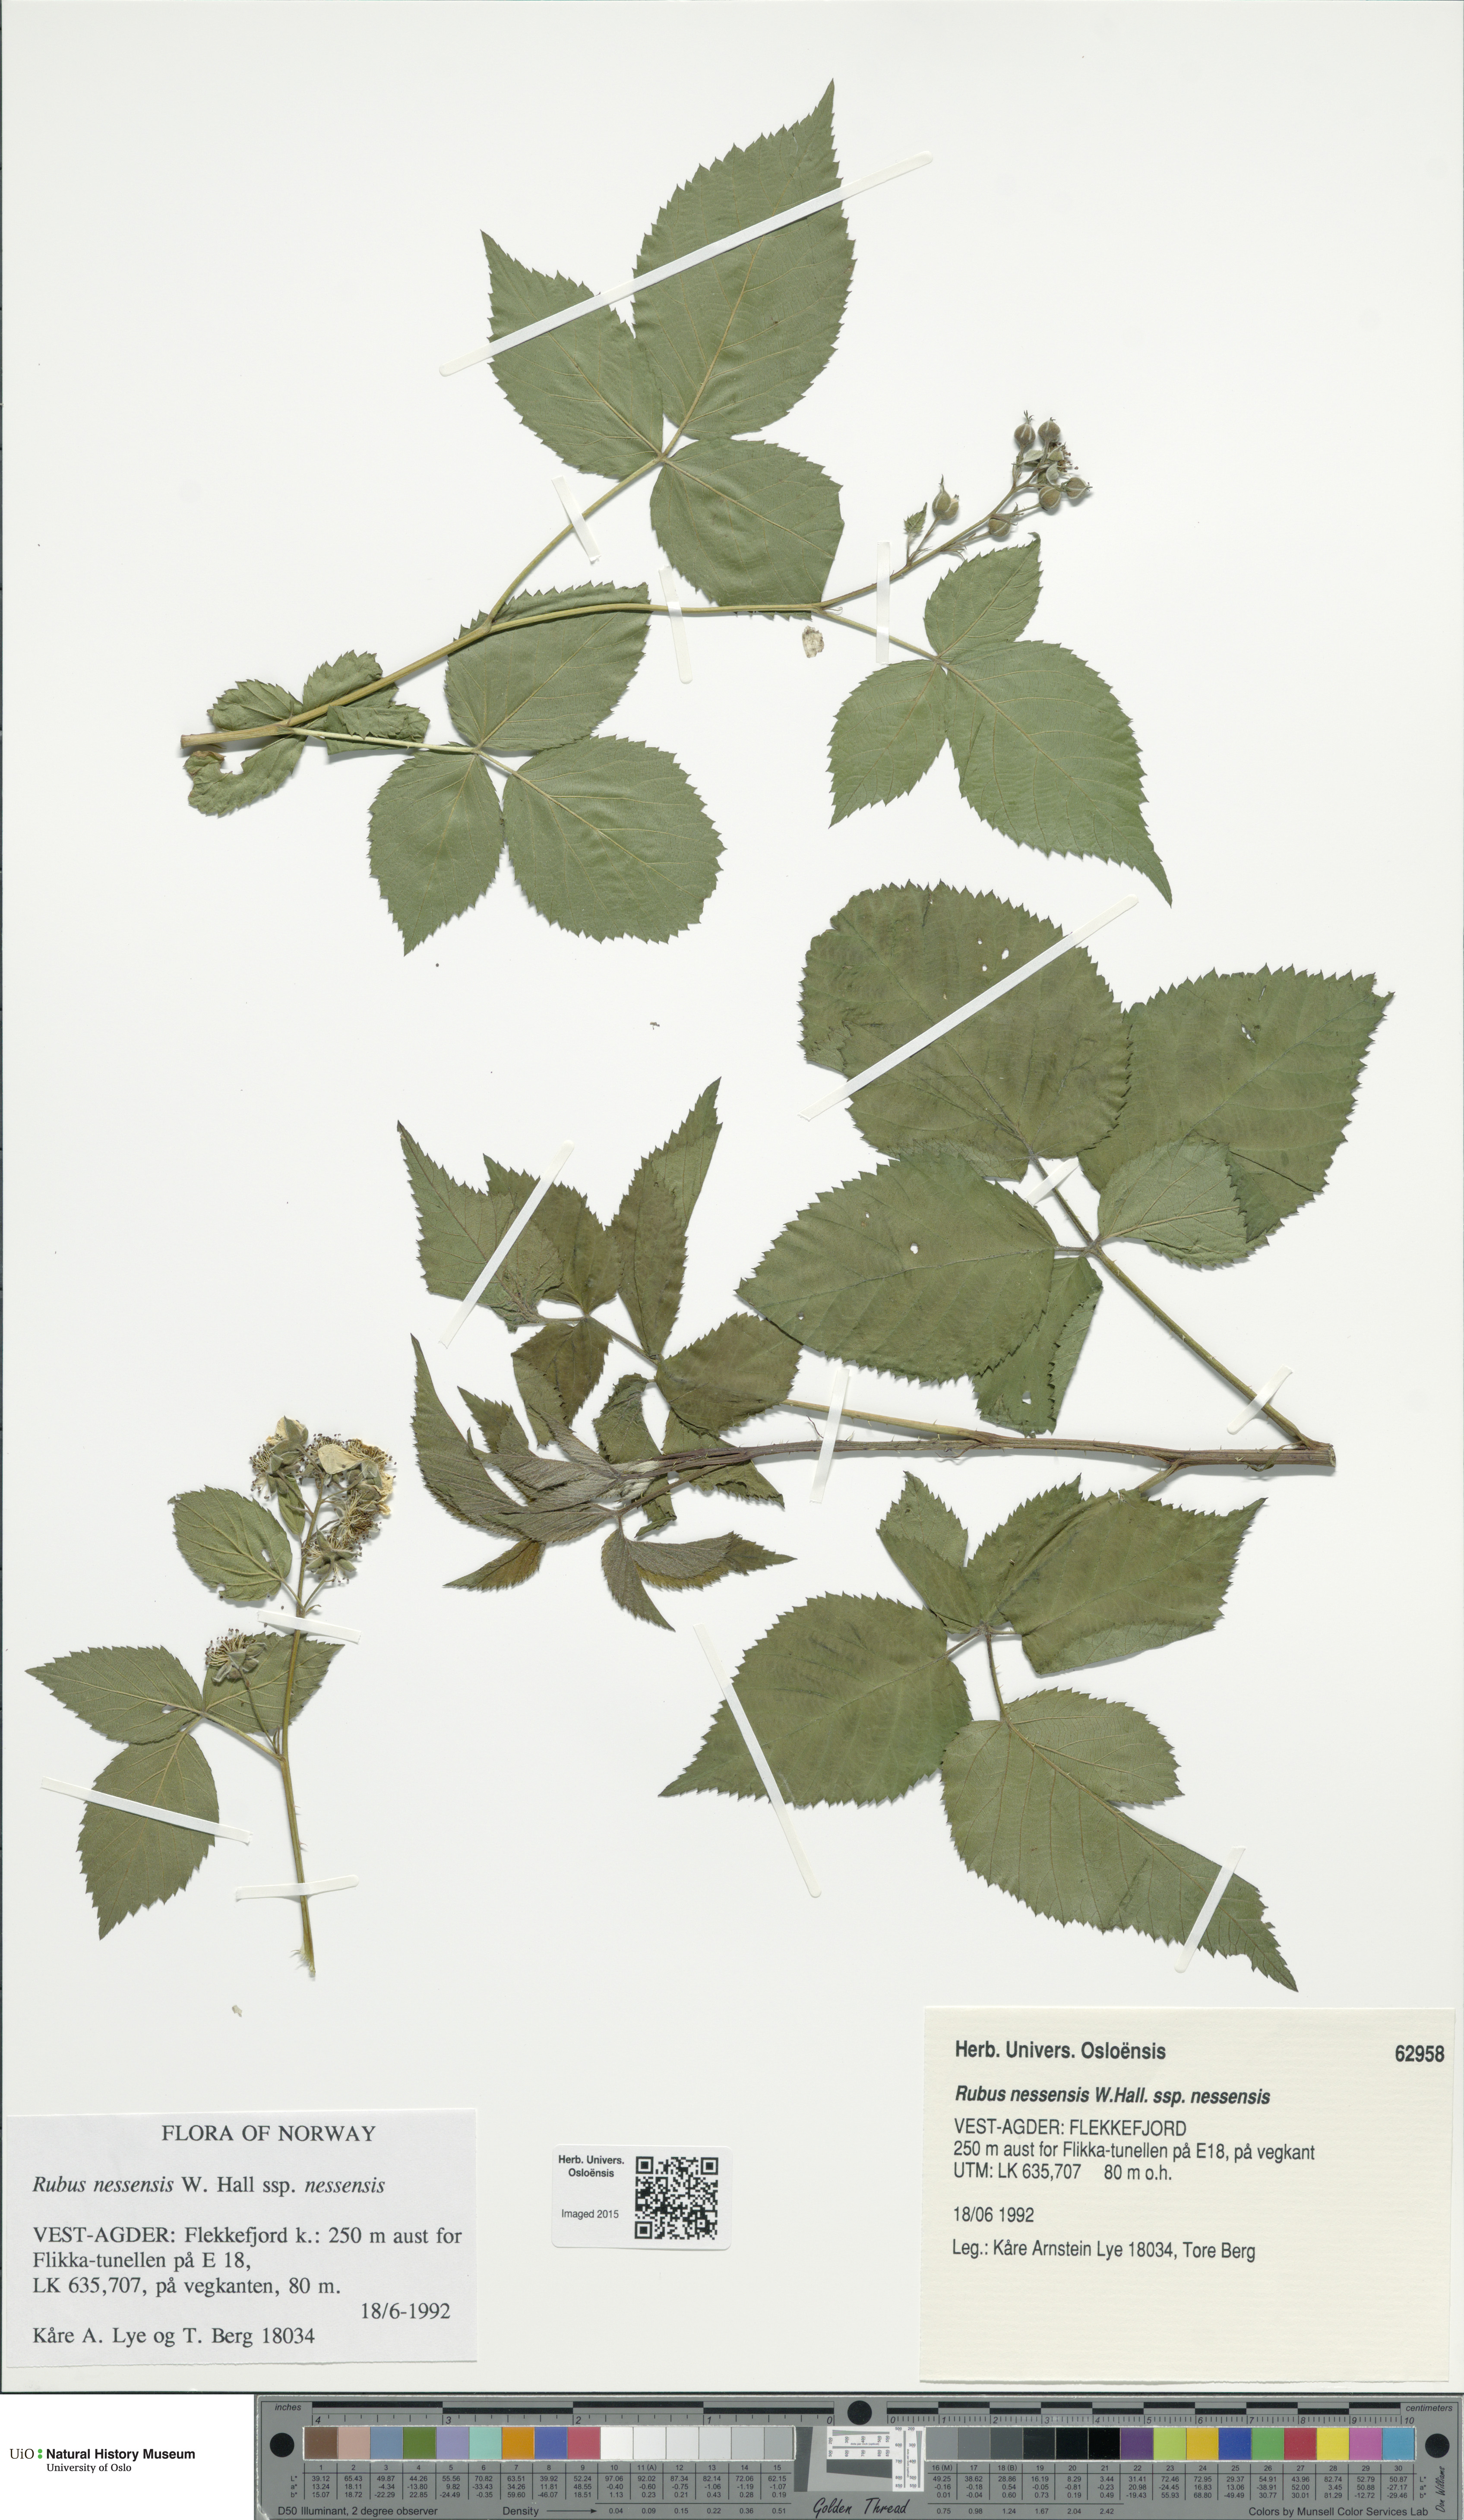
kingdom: Plantae
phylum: Tracheophyta
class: Magnoliopsida
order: Rosales
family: Rosaceae
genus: Rubus
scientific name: Rubus polonicus
